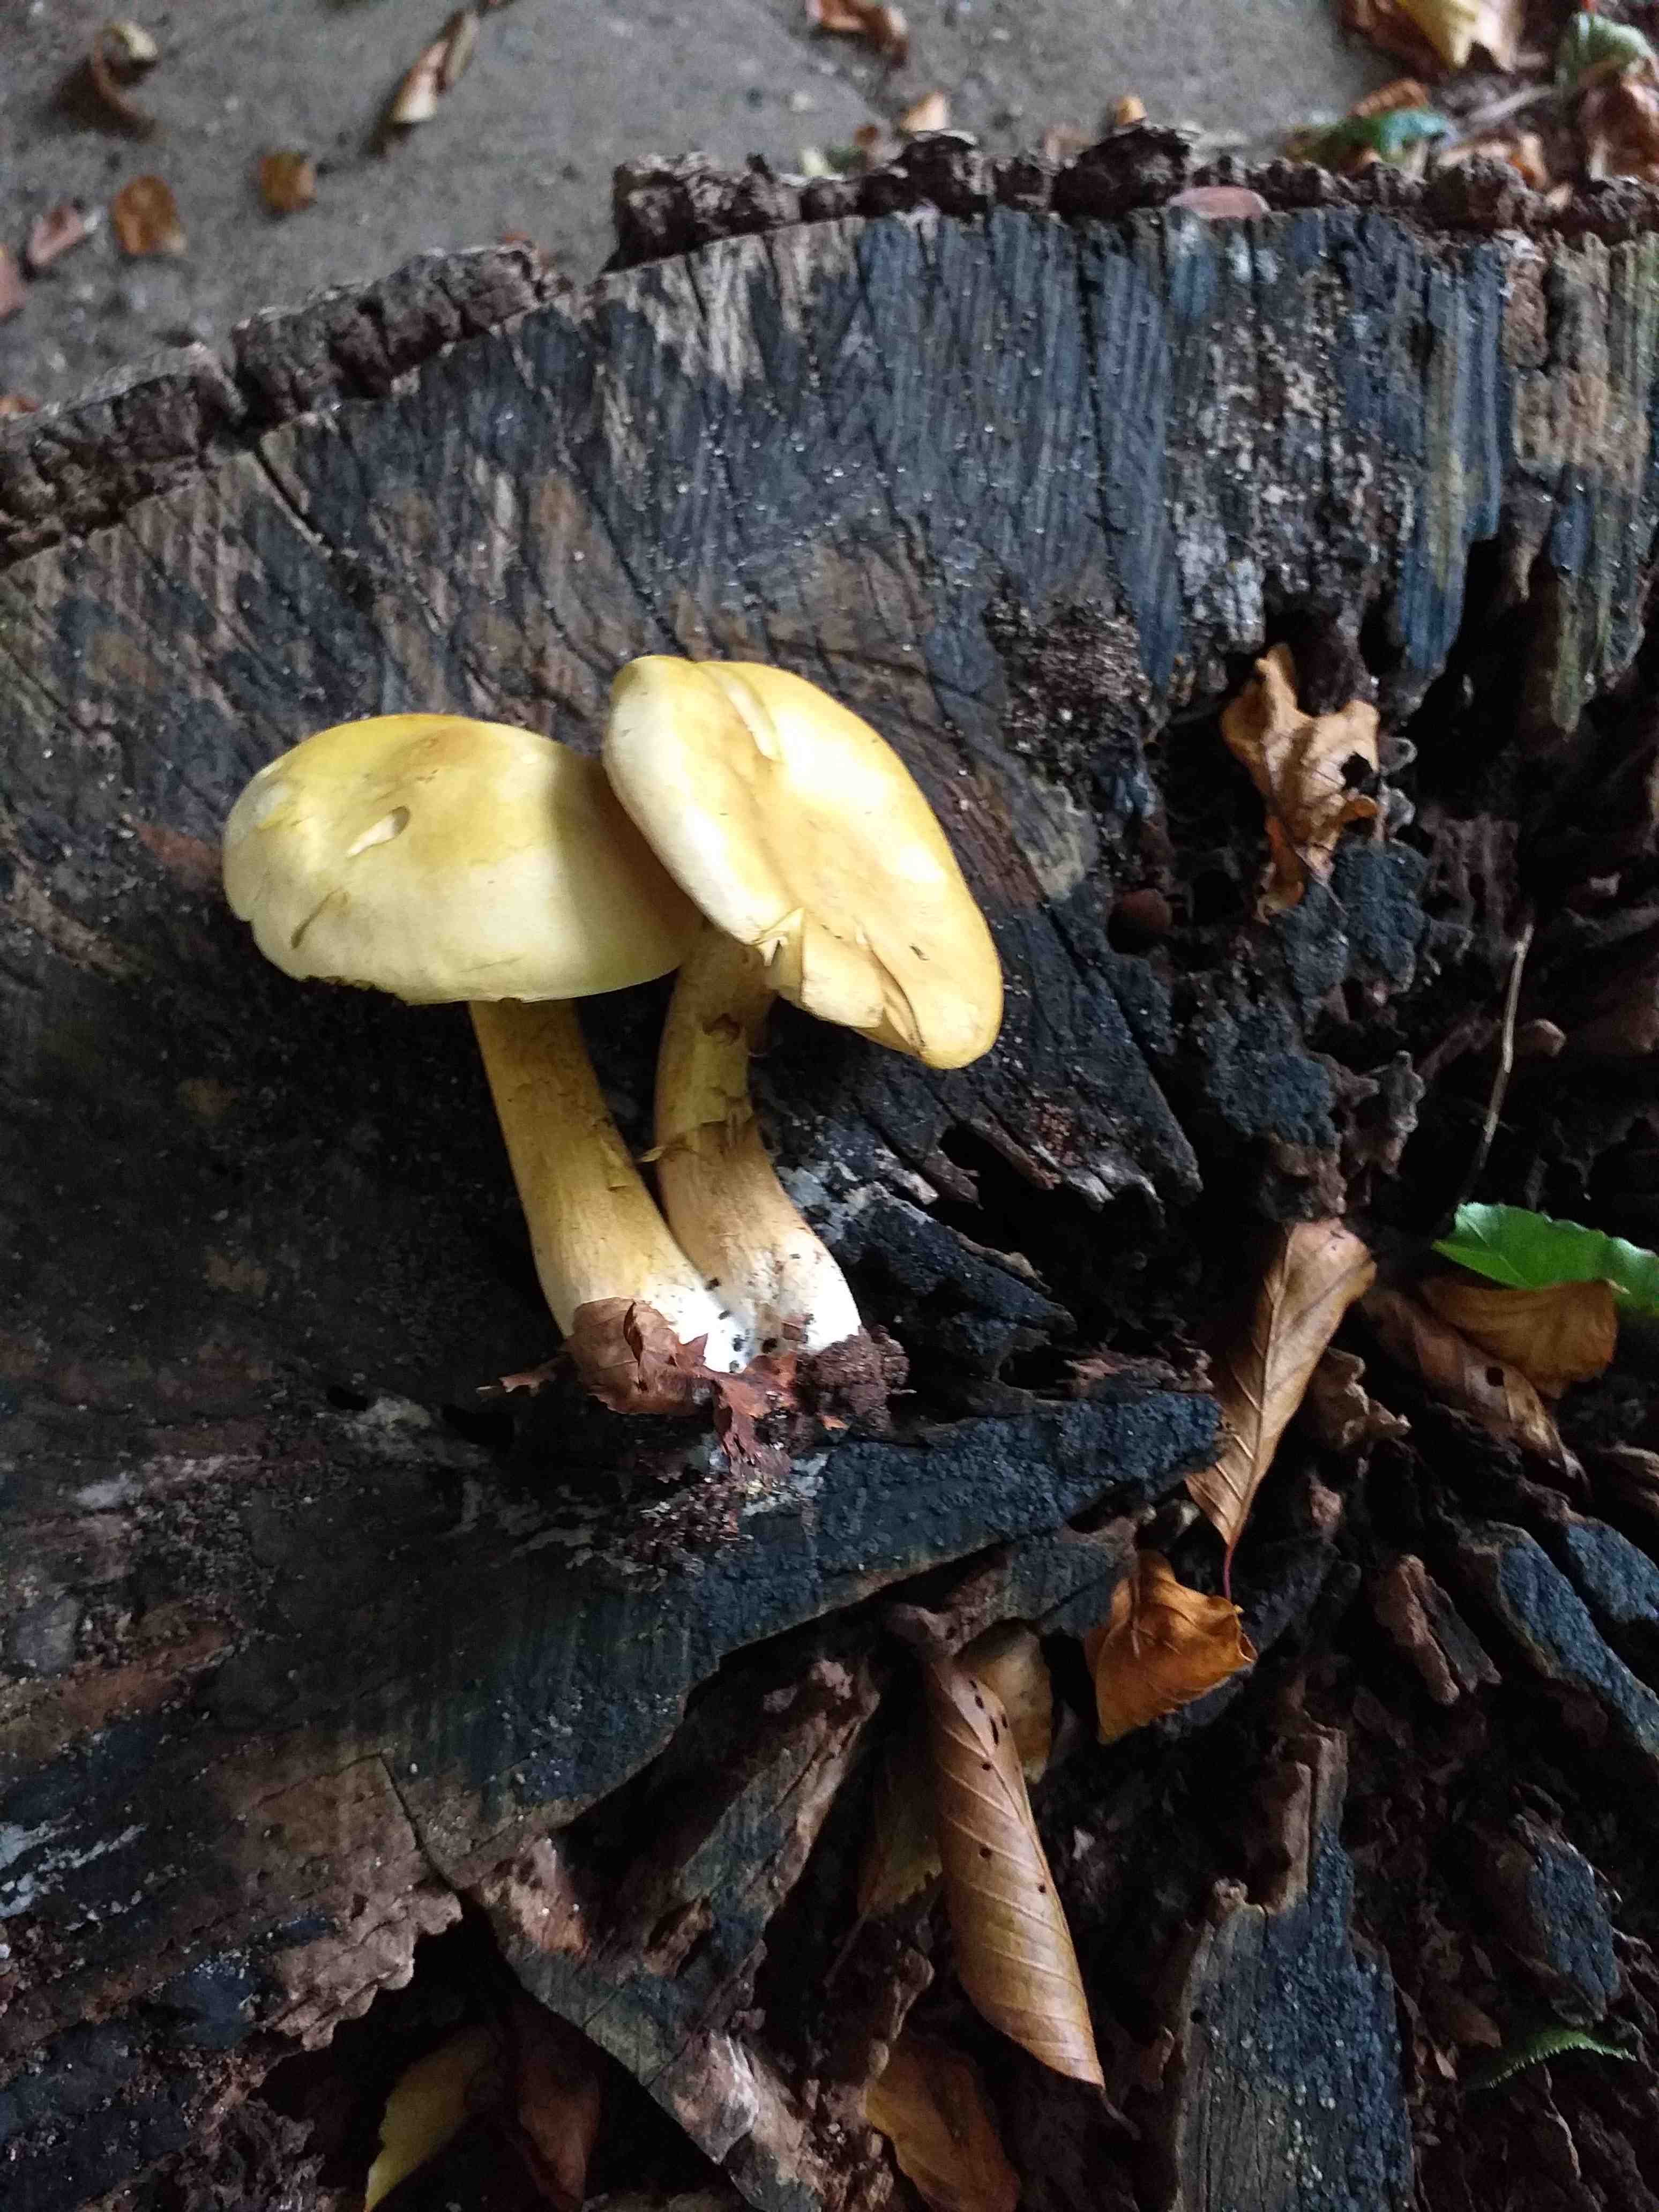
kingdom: Fungi
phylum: Basidiomycota
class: Agaricomycetes
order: Agaricales
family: Tricholomataceae
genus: Tricholoma
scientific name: Tricholoma sulphureum
